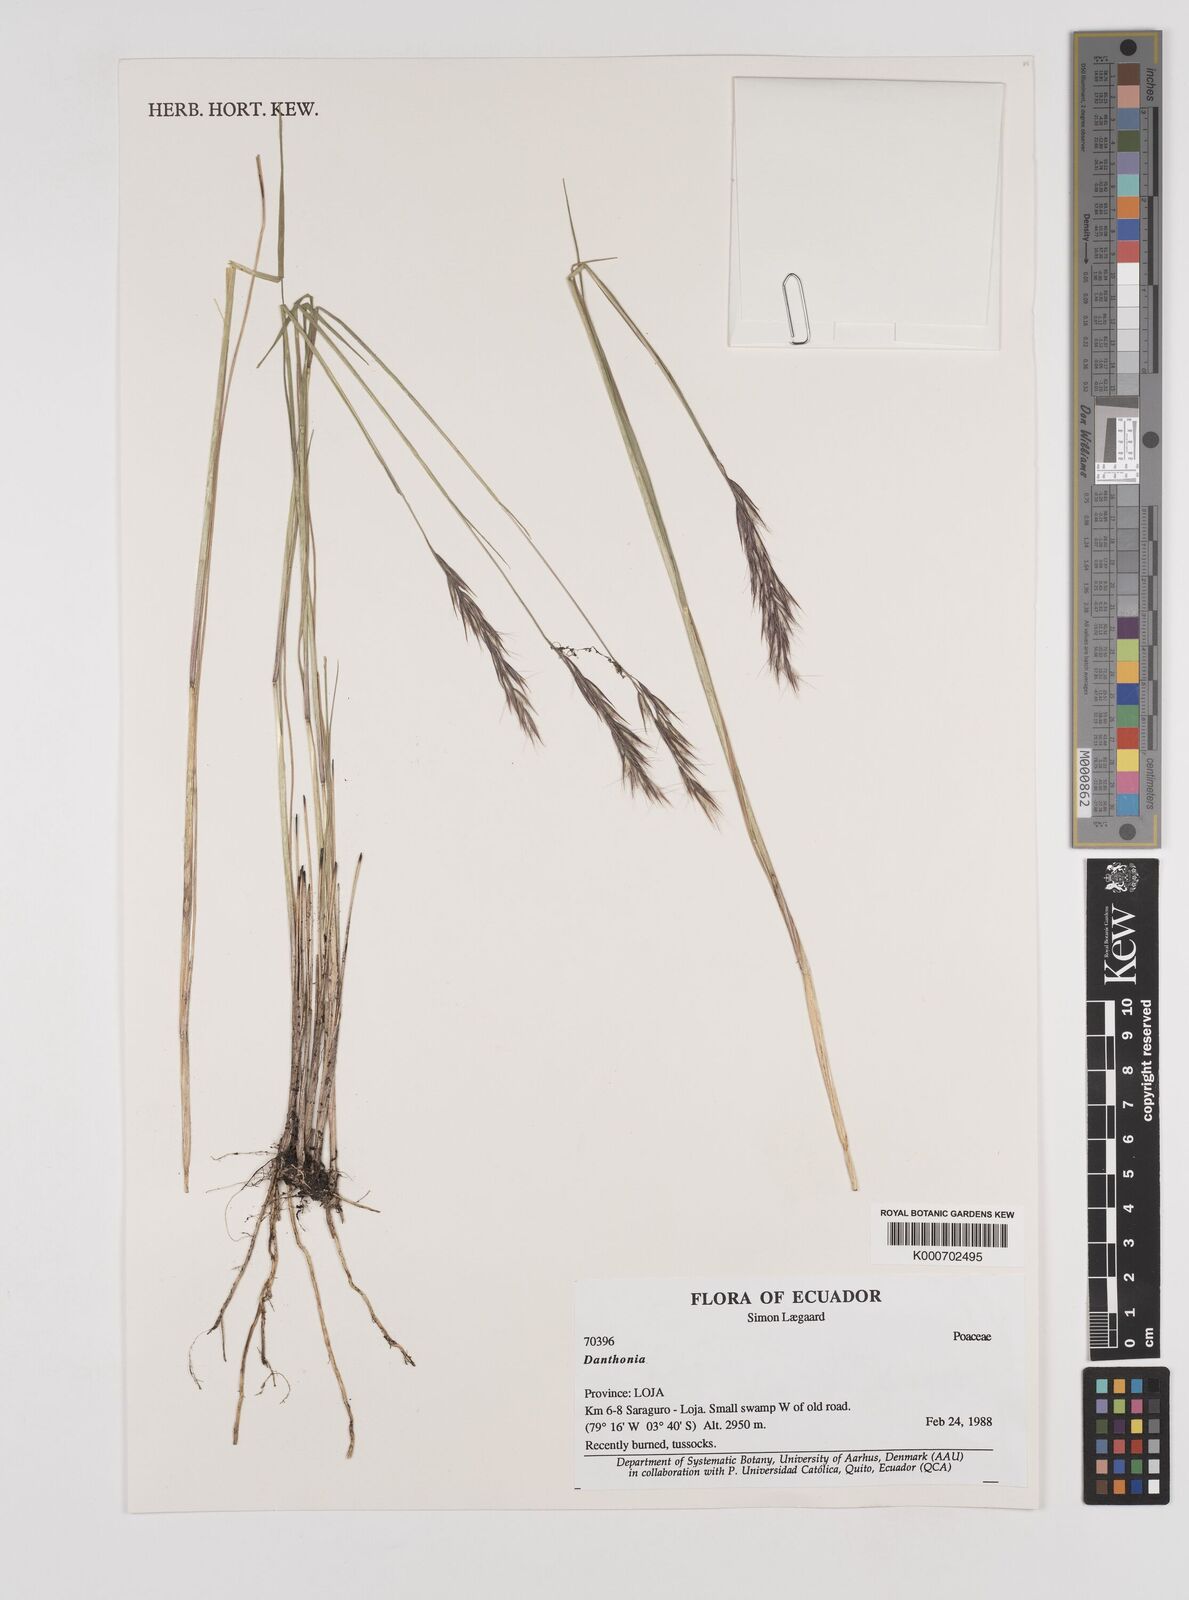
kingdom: Plantae
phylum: Tracheophyta
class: Liliopsida
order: Poales
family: Poaceae
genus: Danthonia
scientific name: Danthonia secundiflora
